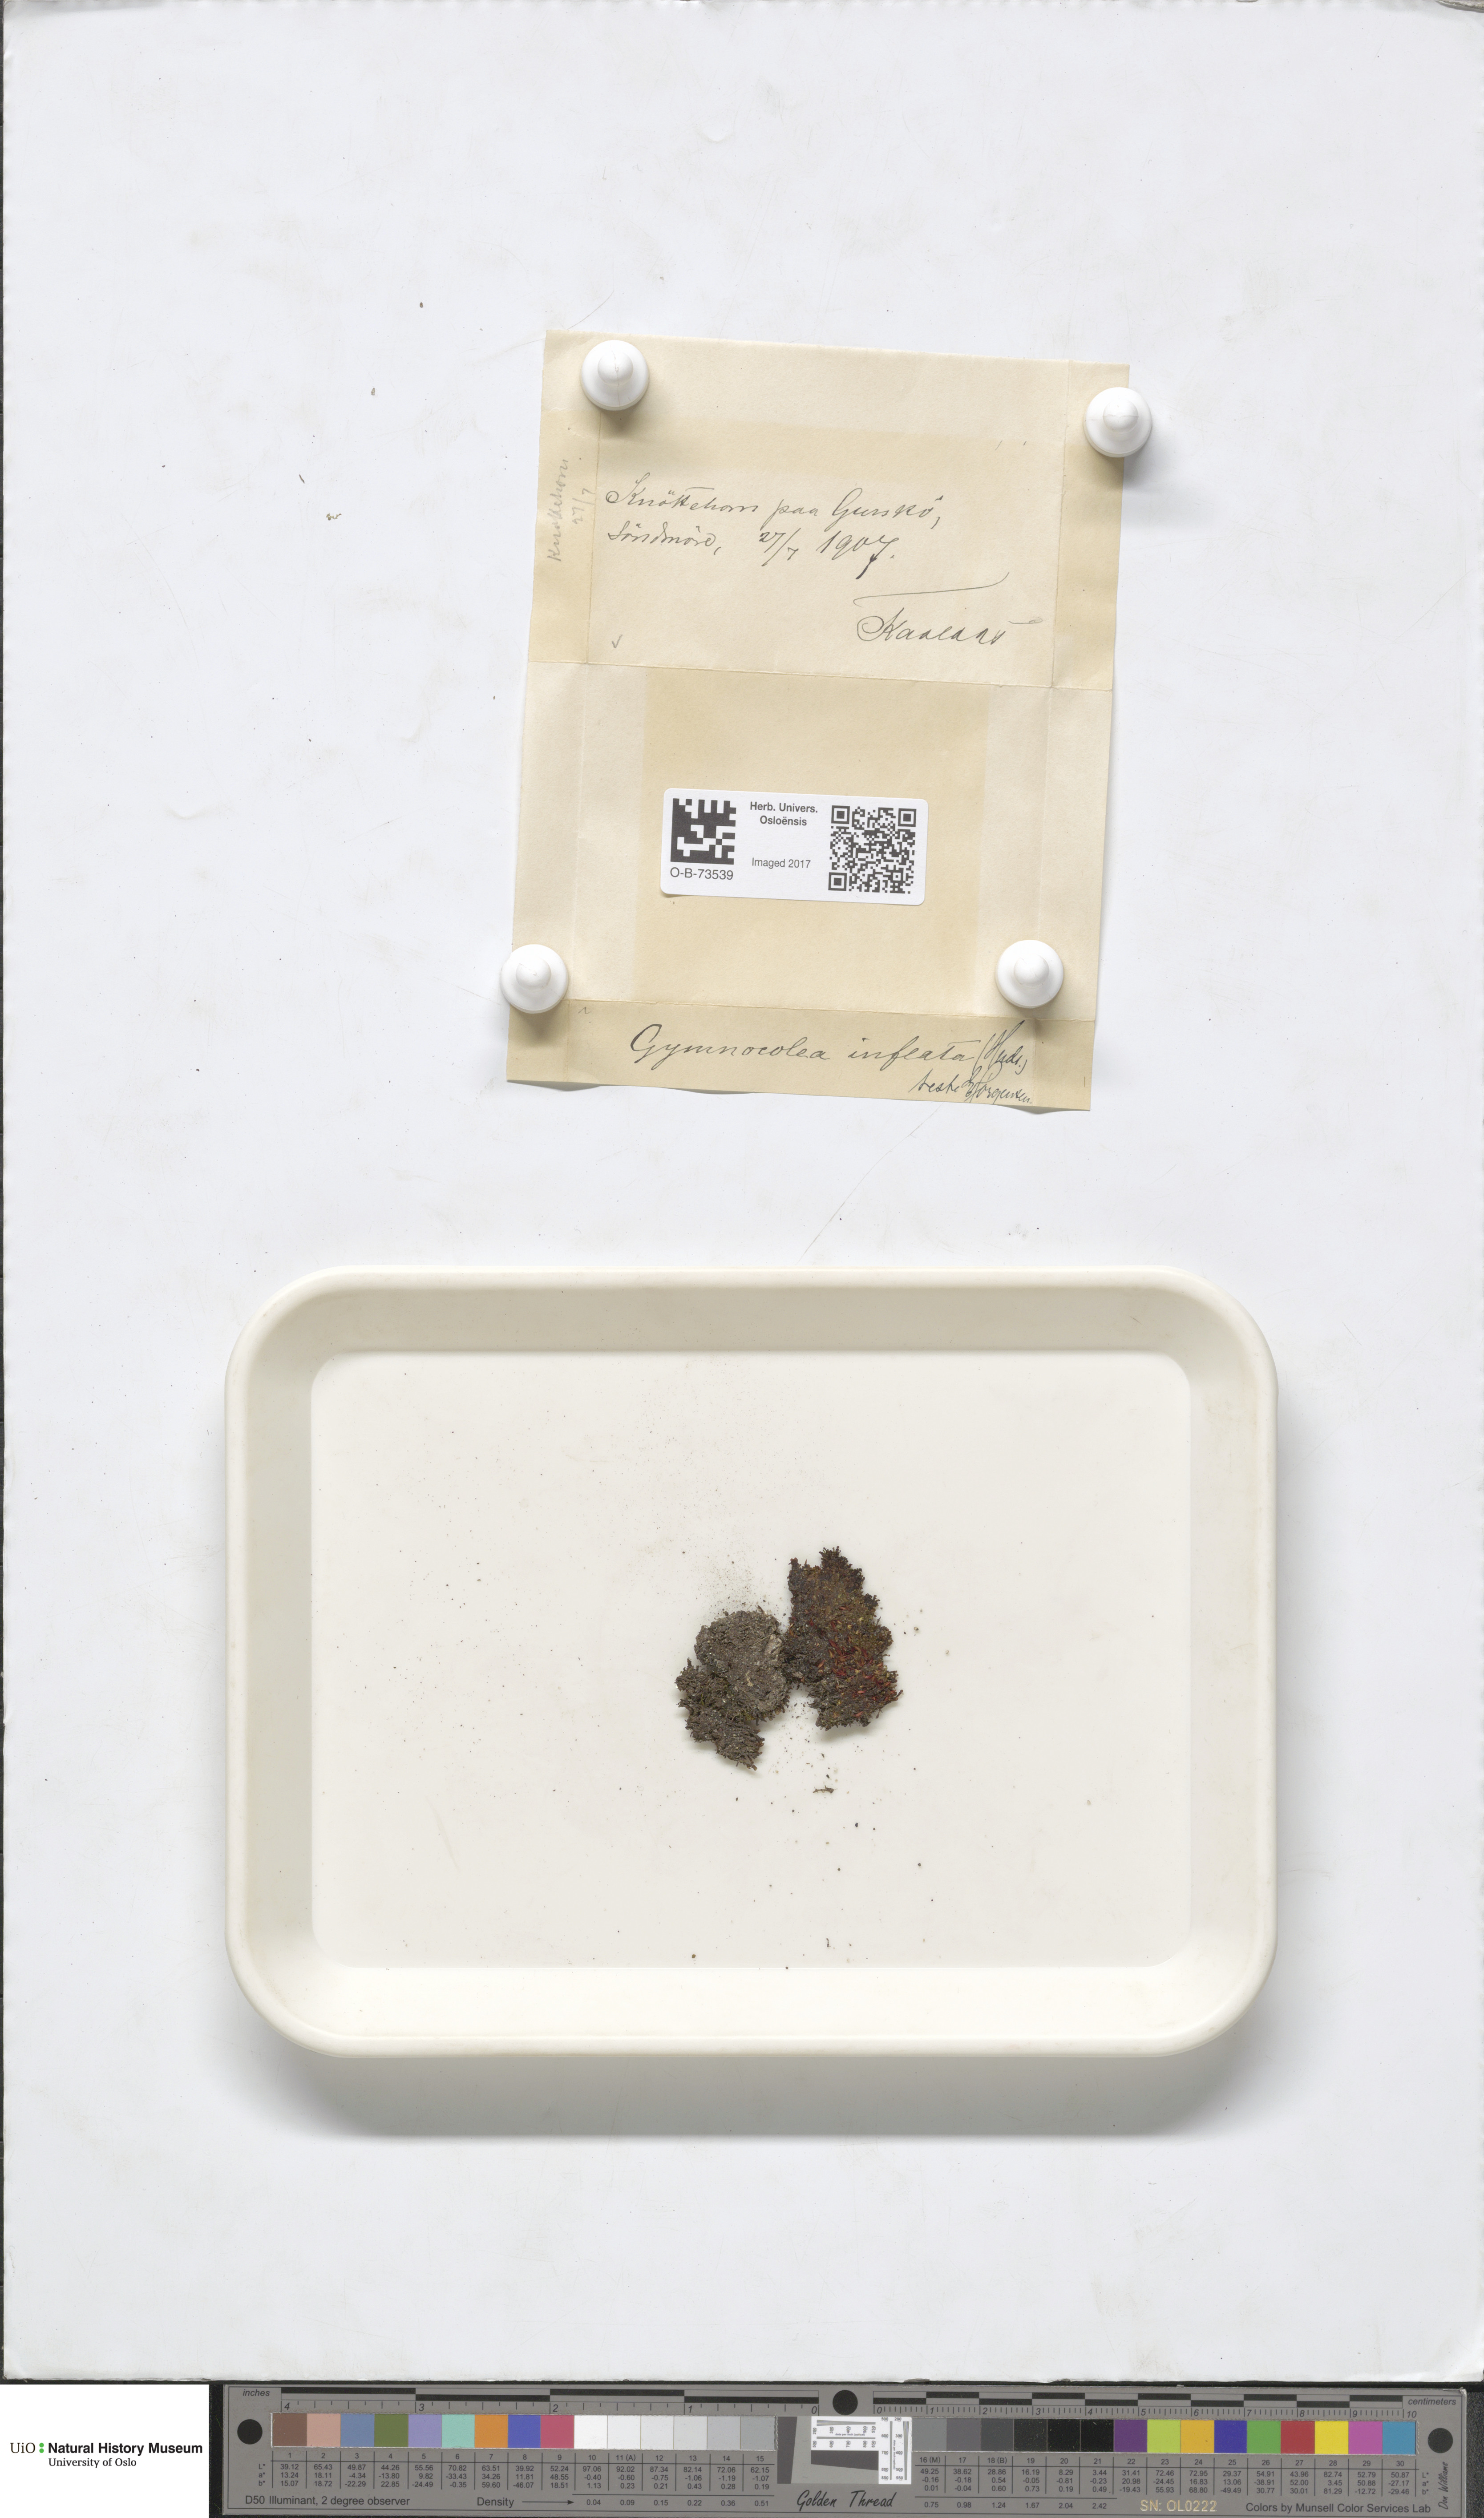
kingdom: Plantae
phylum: Marchantiophyta
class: Jungermanniopsida
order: Jungermanniales
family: Anastrophyllaceae
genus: Gymnocolea
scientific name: Gymnocolea inflata
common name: Inflated notchwort
